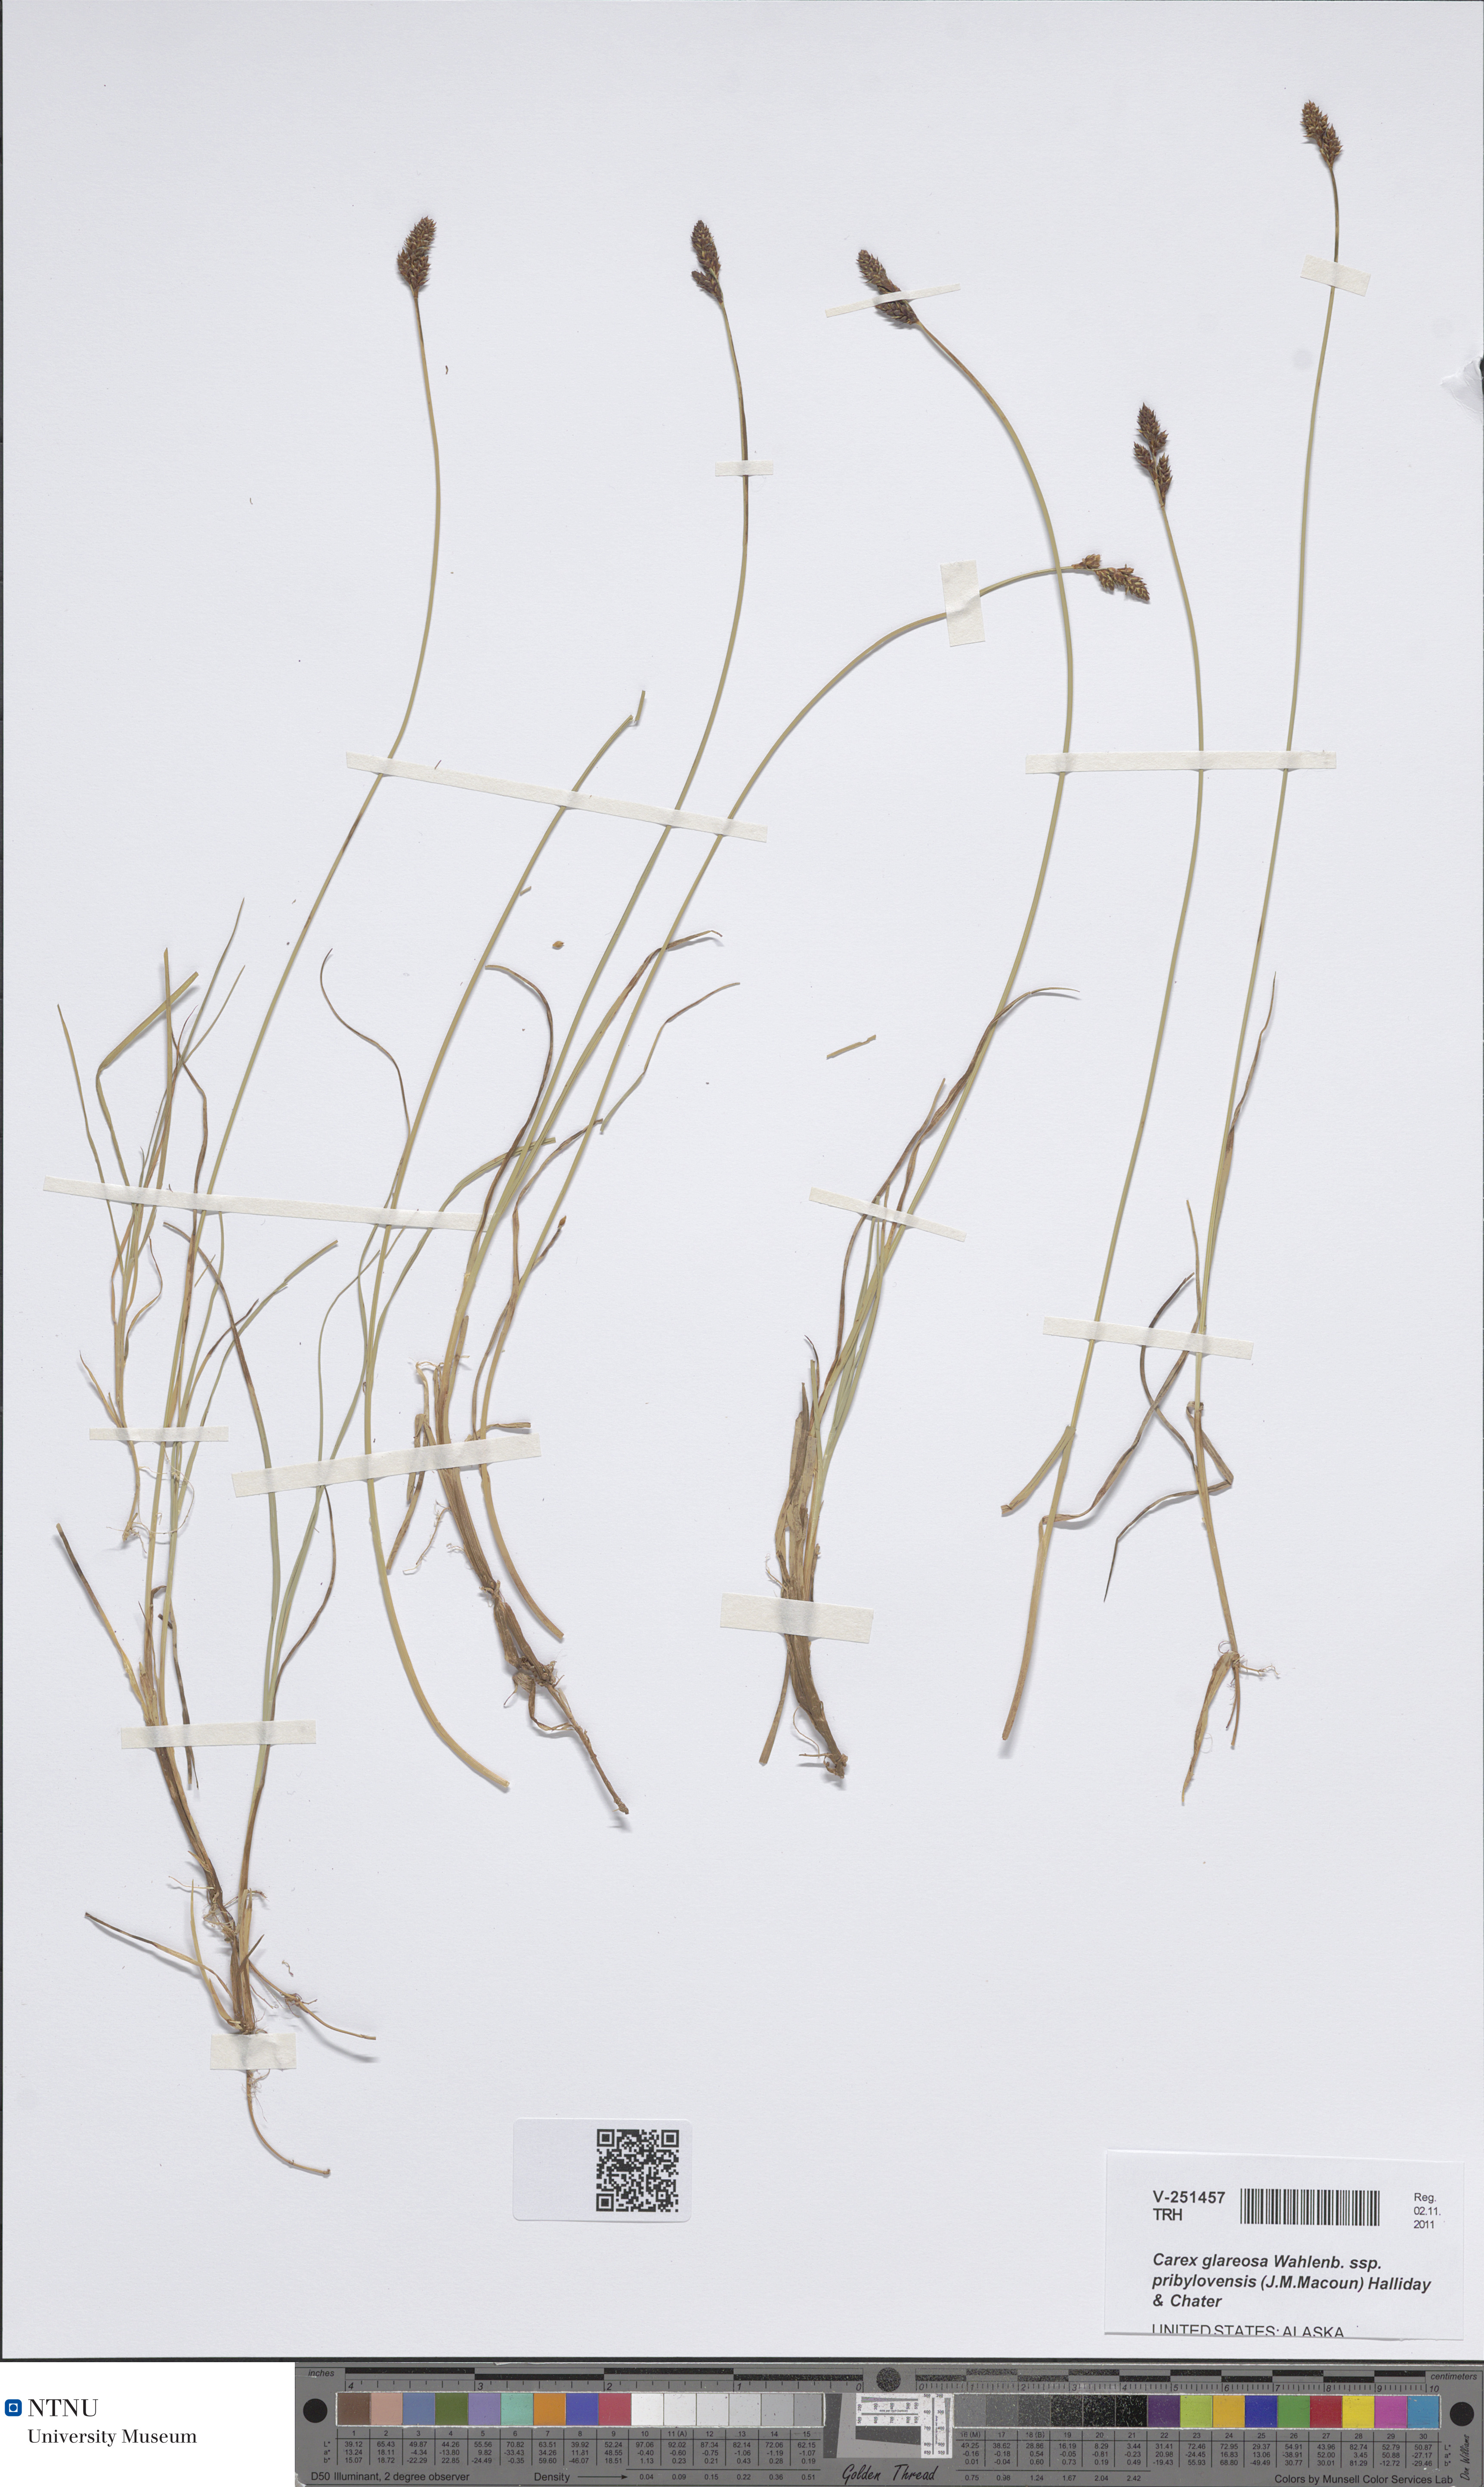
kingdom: Plantae
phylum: Tracheophyta
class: Liliopsida
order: Poales
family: Cyperaceae
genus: Carex
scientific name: Carex glareosa
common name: Clustered sedge
